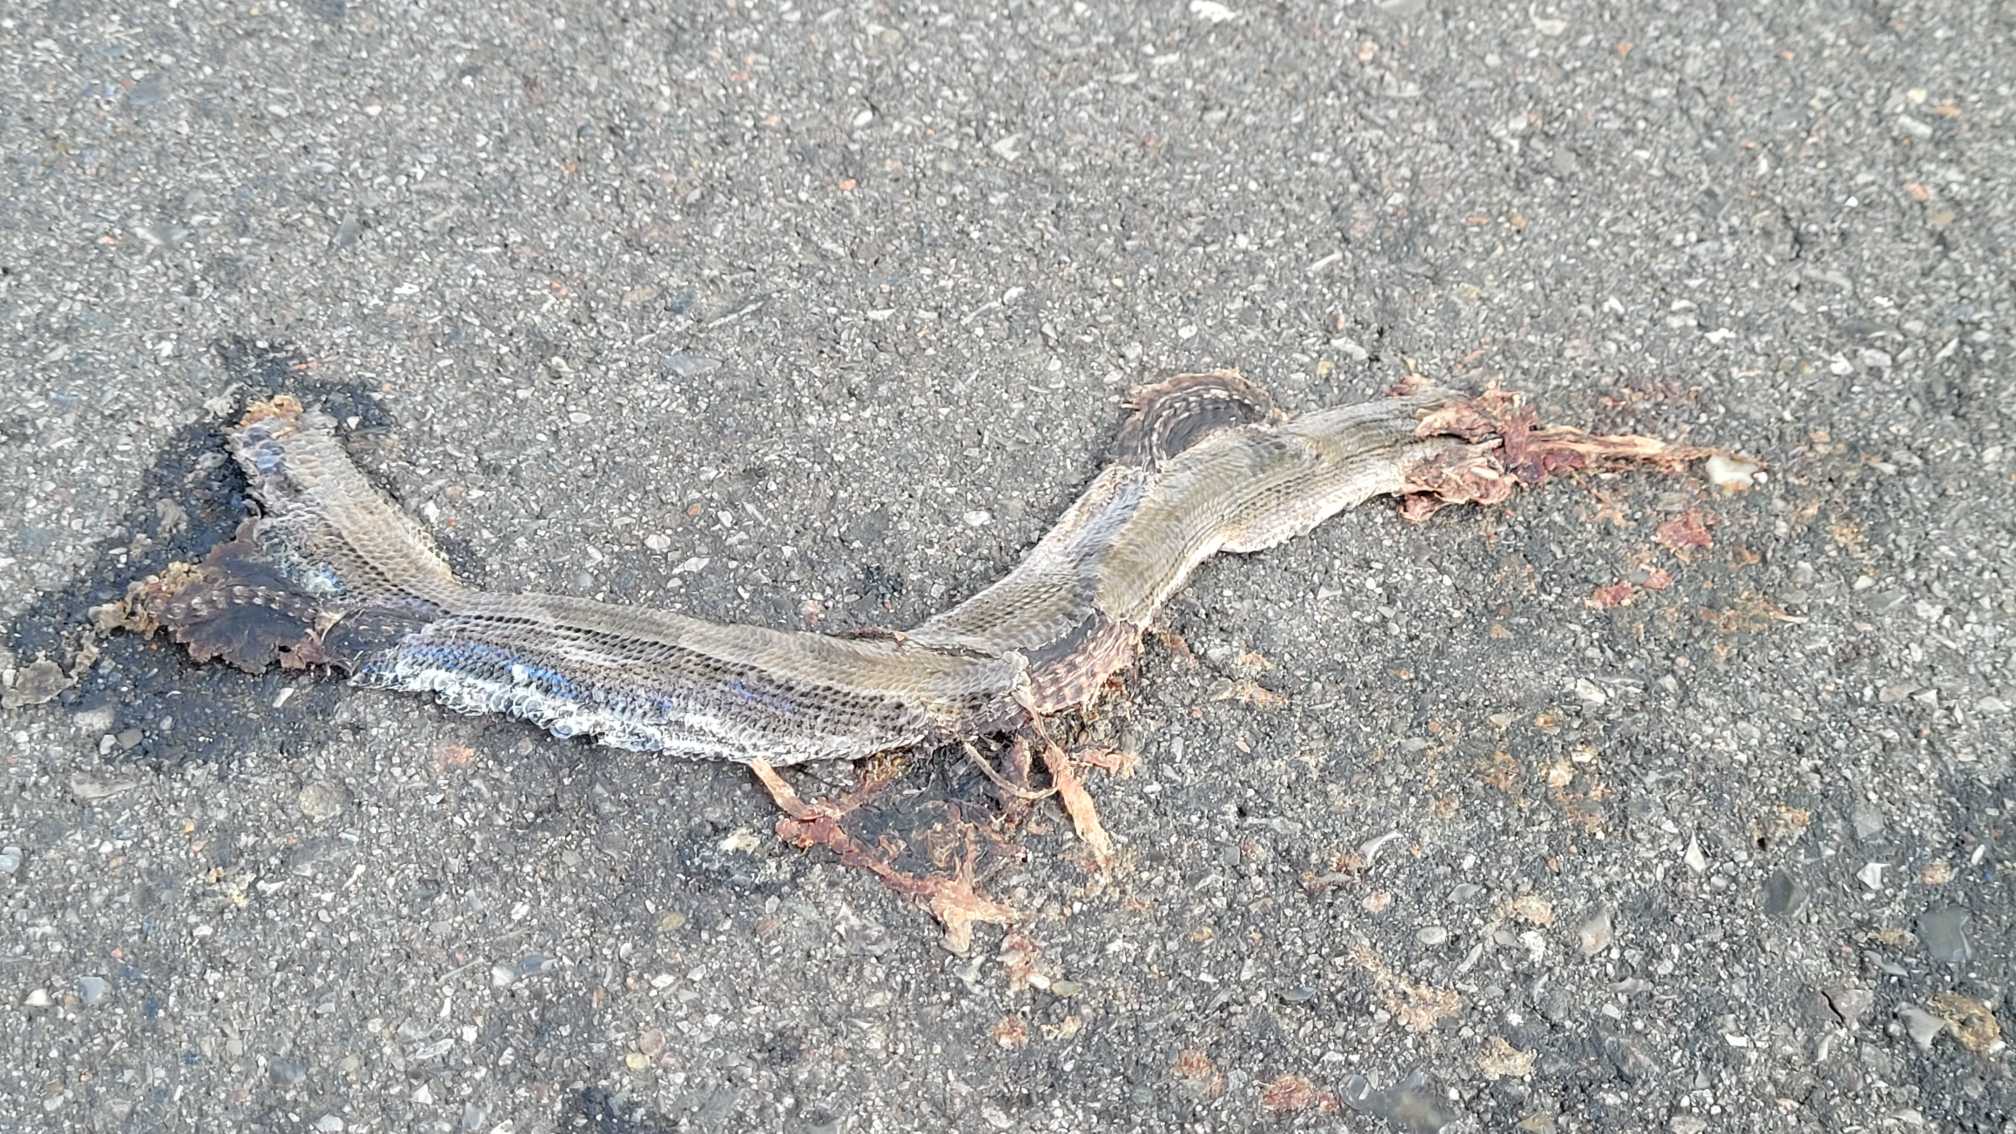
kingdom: Animalia
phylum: Chordata
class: Squamata
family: Anguidae
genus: Anguis
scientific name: Anguis fragilis
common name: Stålorm
